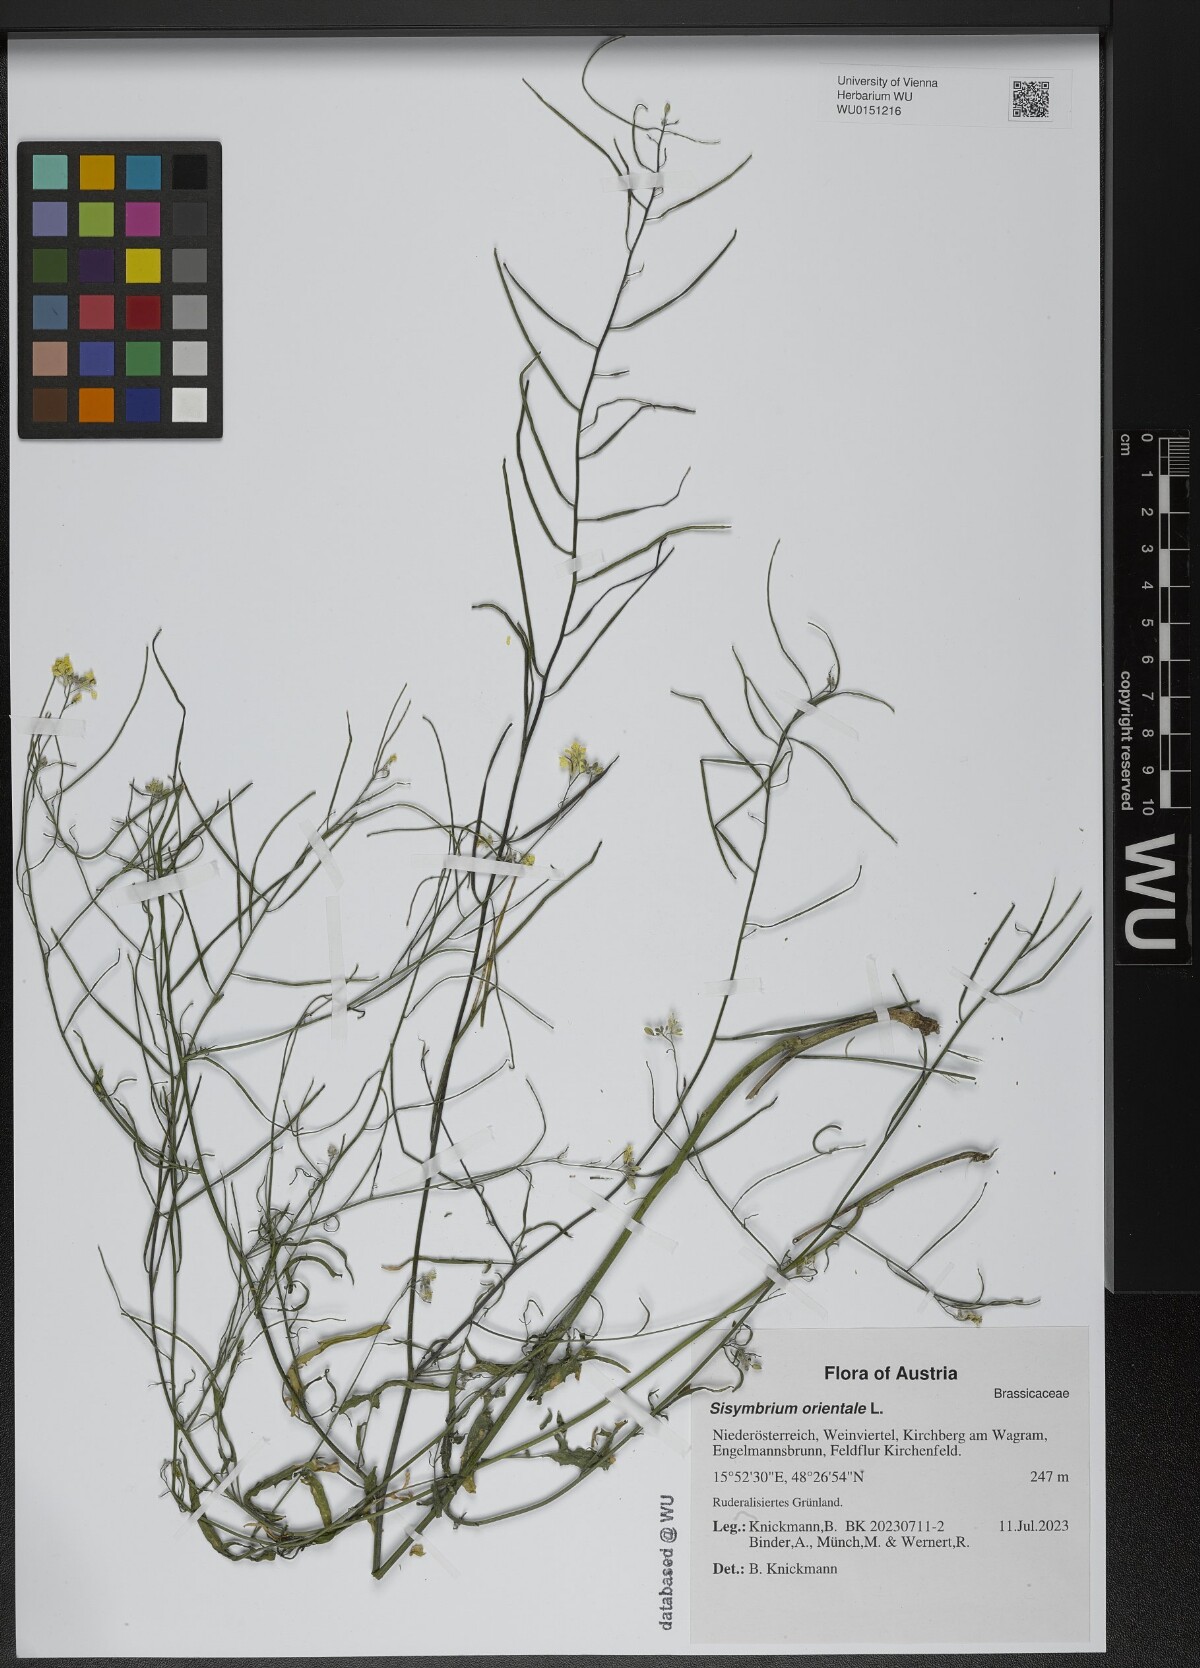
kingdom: Plantae
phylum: Tracheophyta
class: Magnoliopsida
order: Brassicales
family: Brassicaceae
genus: Sisymbrium
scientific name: Sisymbrium orientale
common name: Eastern rocket
